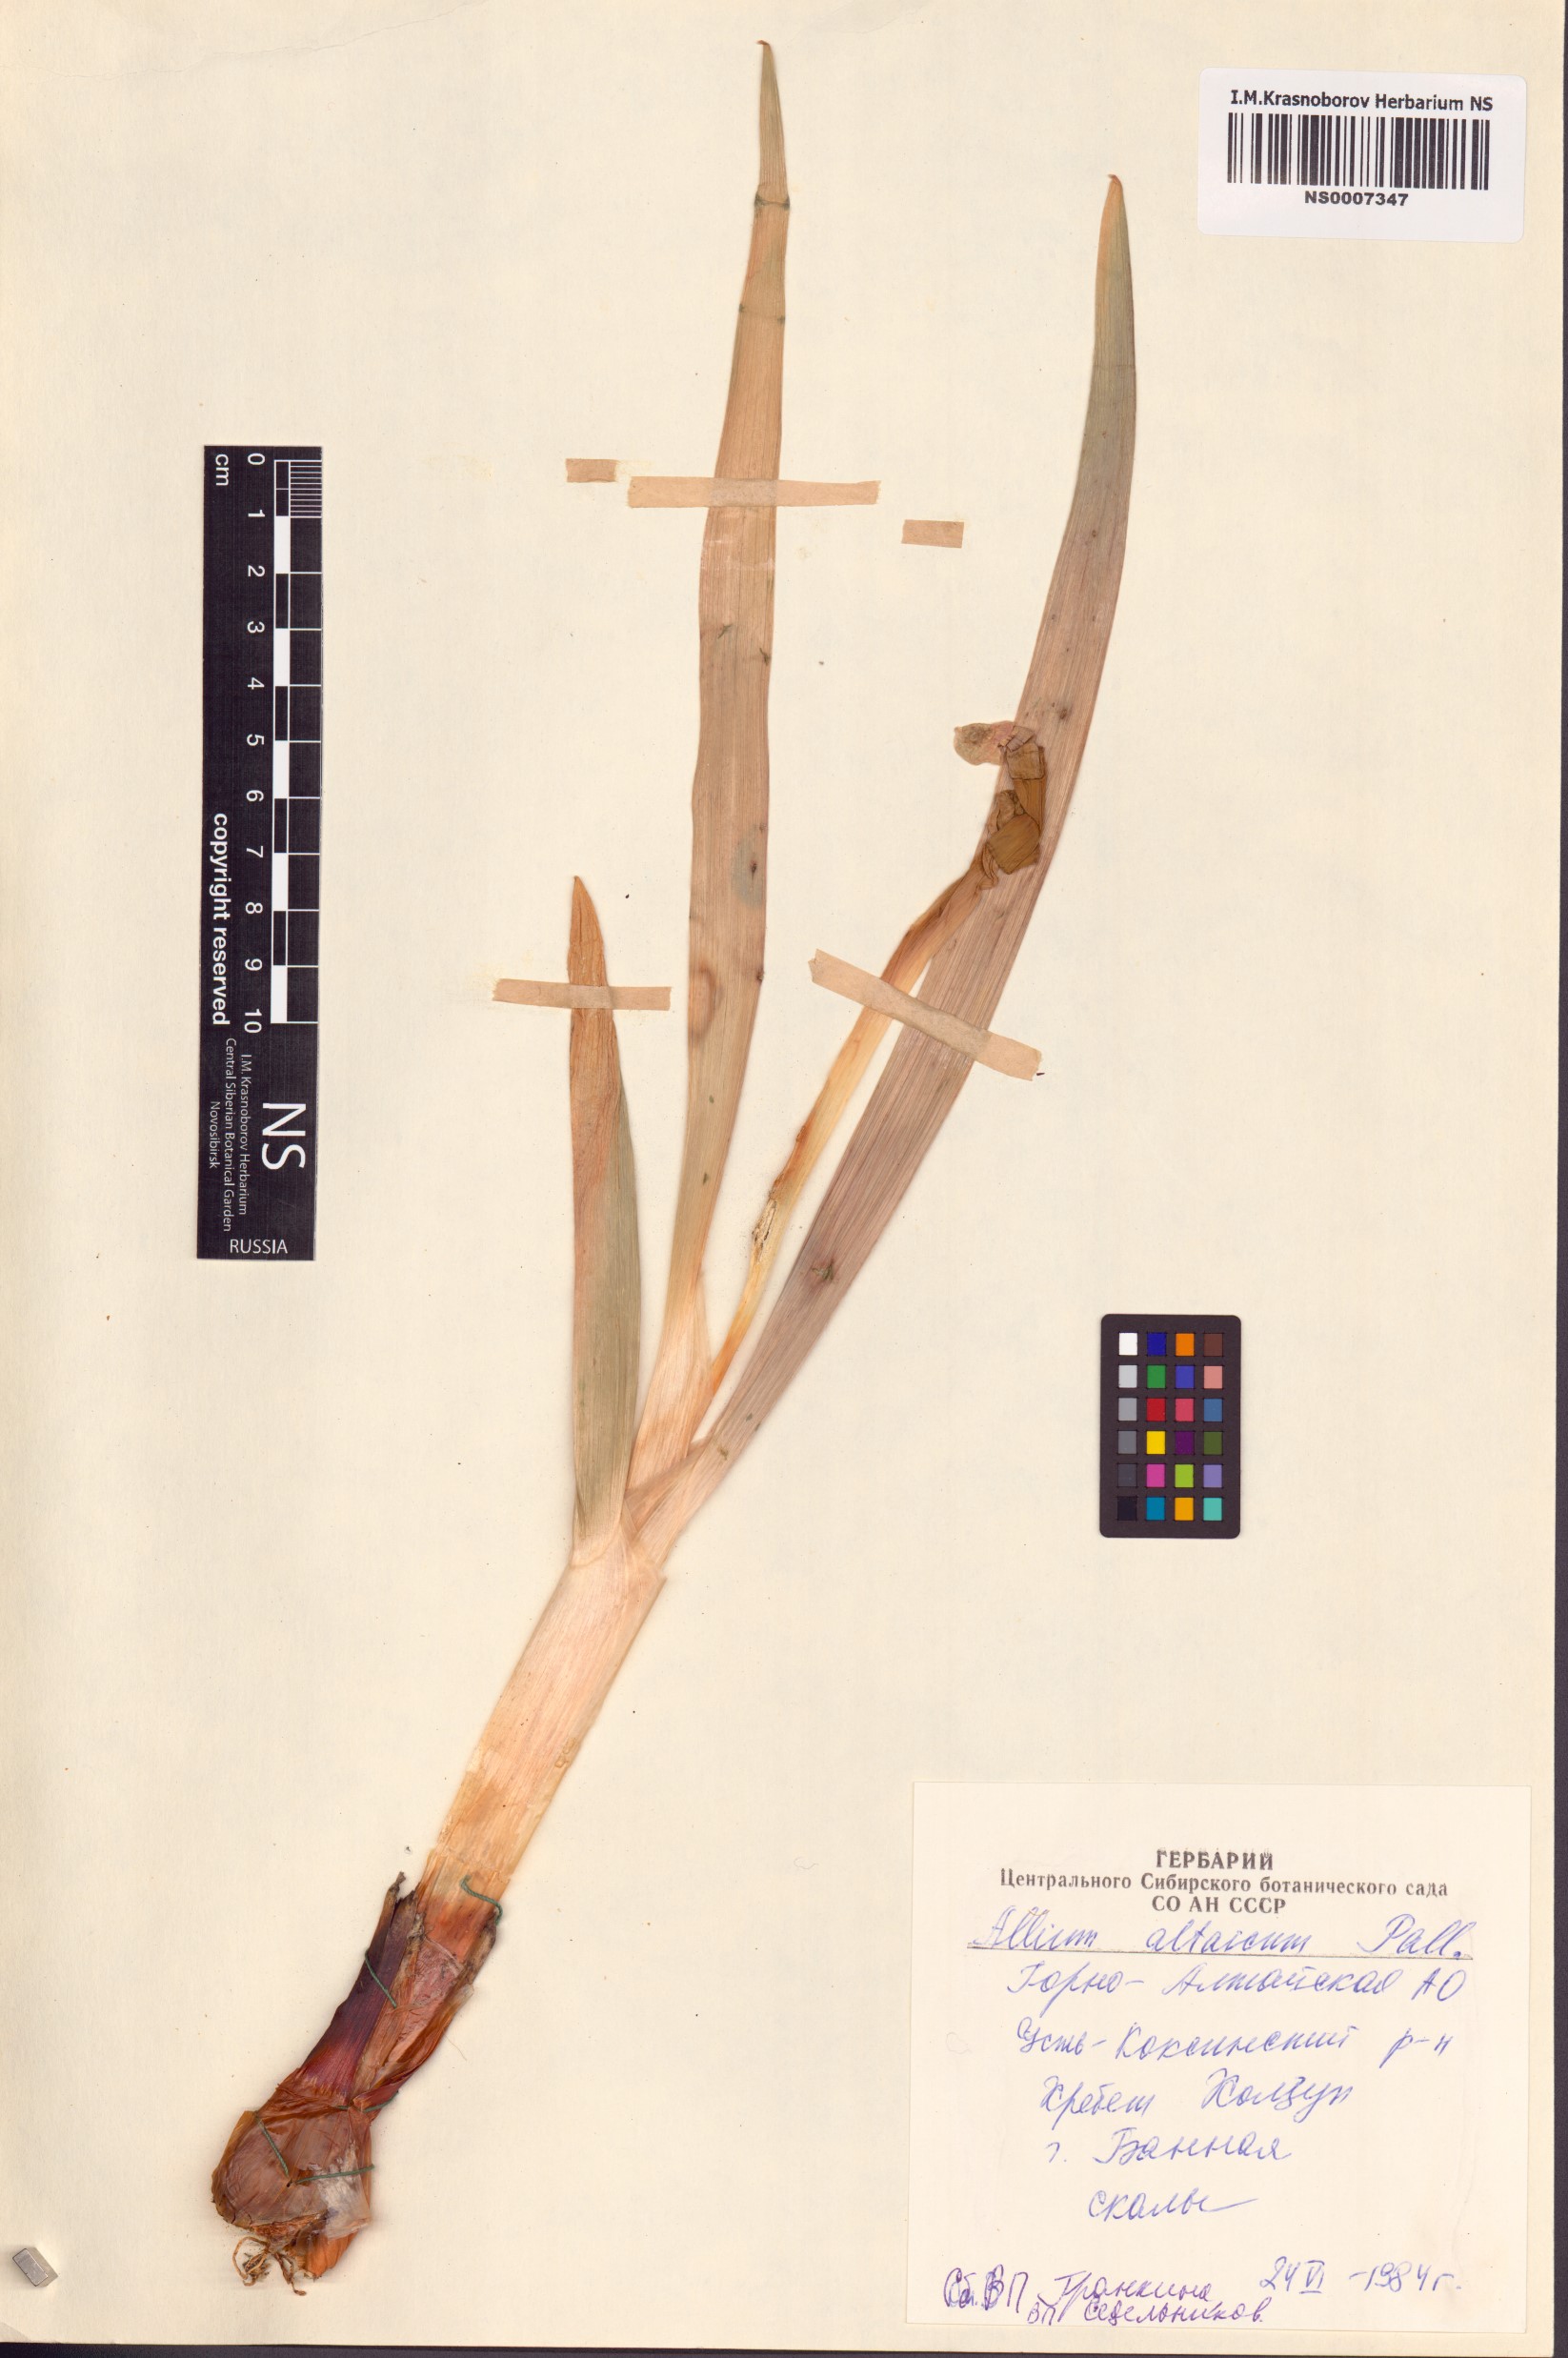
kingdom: Plantae
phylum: Tracheophyta
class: Liliopsida
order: Asparagales
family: Amaryllidaceae
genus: Allium
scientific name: Allium altaicum
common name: Altai onion
